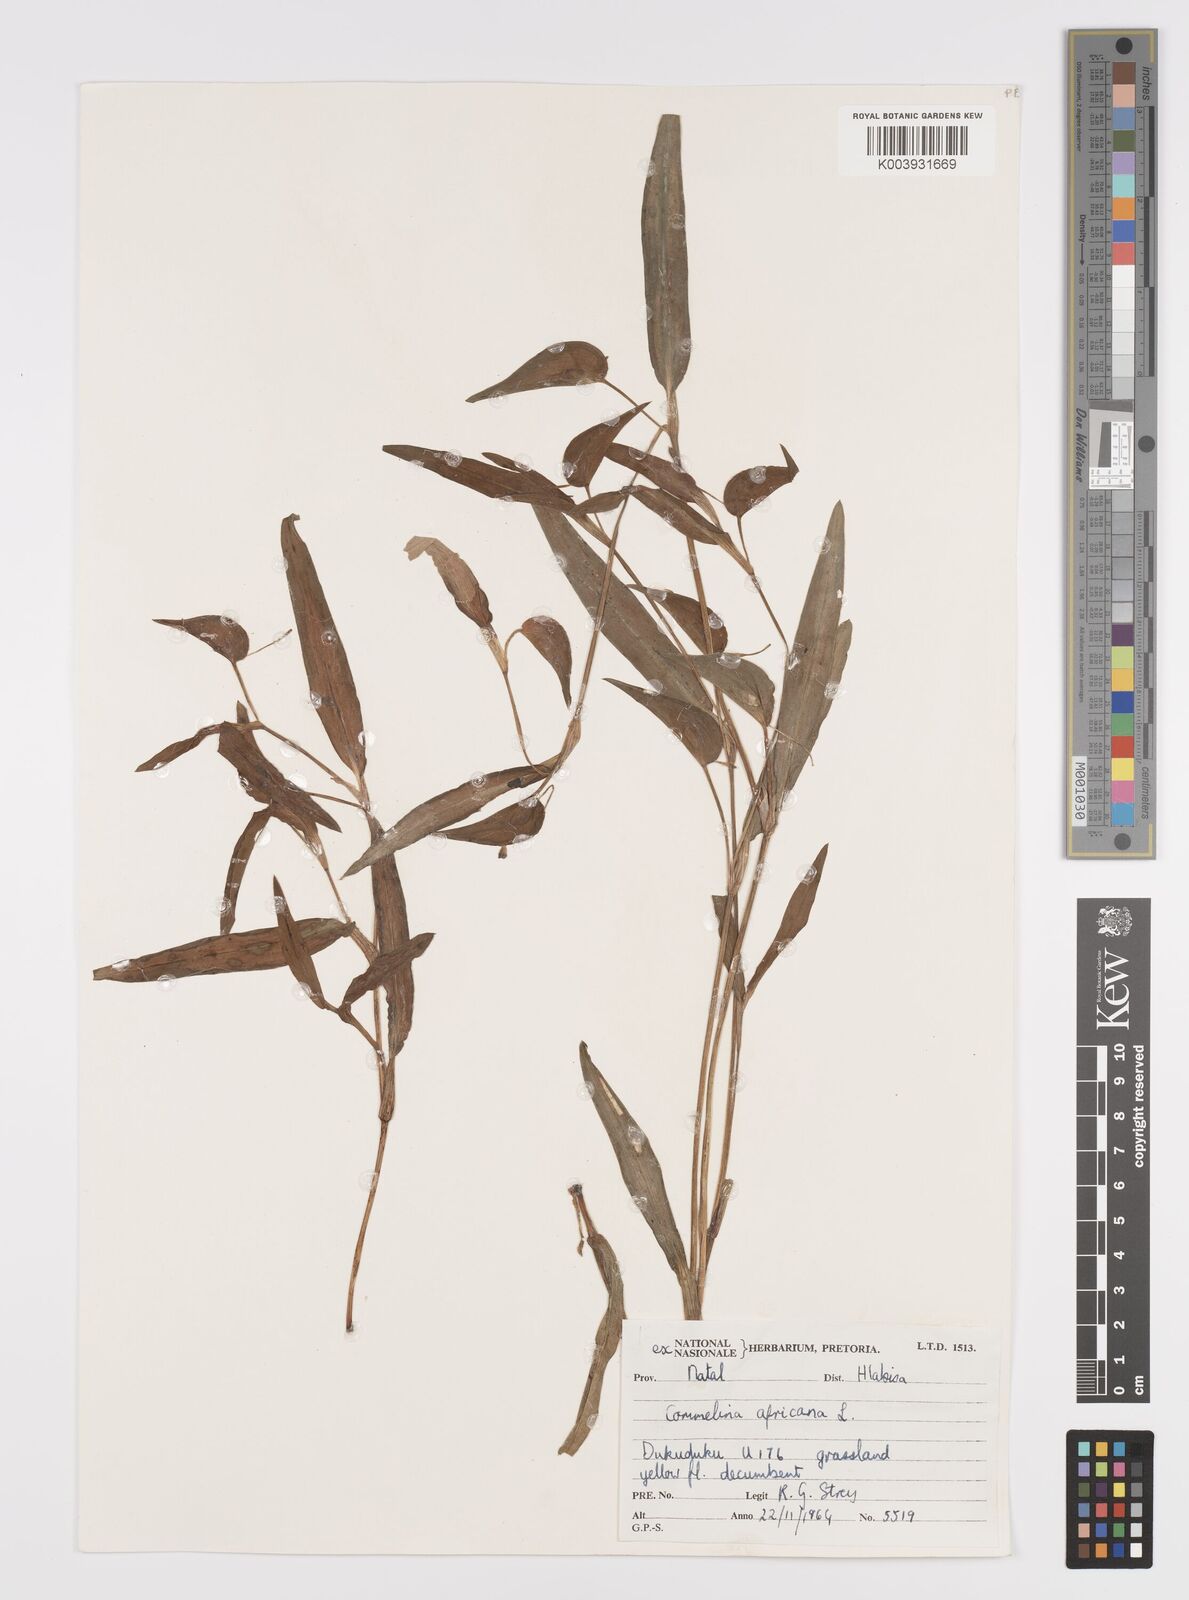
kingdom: Plantae
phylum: Tracheophyta
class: Liliopsida
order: Commelinales
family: Commelinaceae
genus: Commelina
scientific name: Commelina africana
